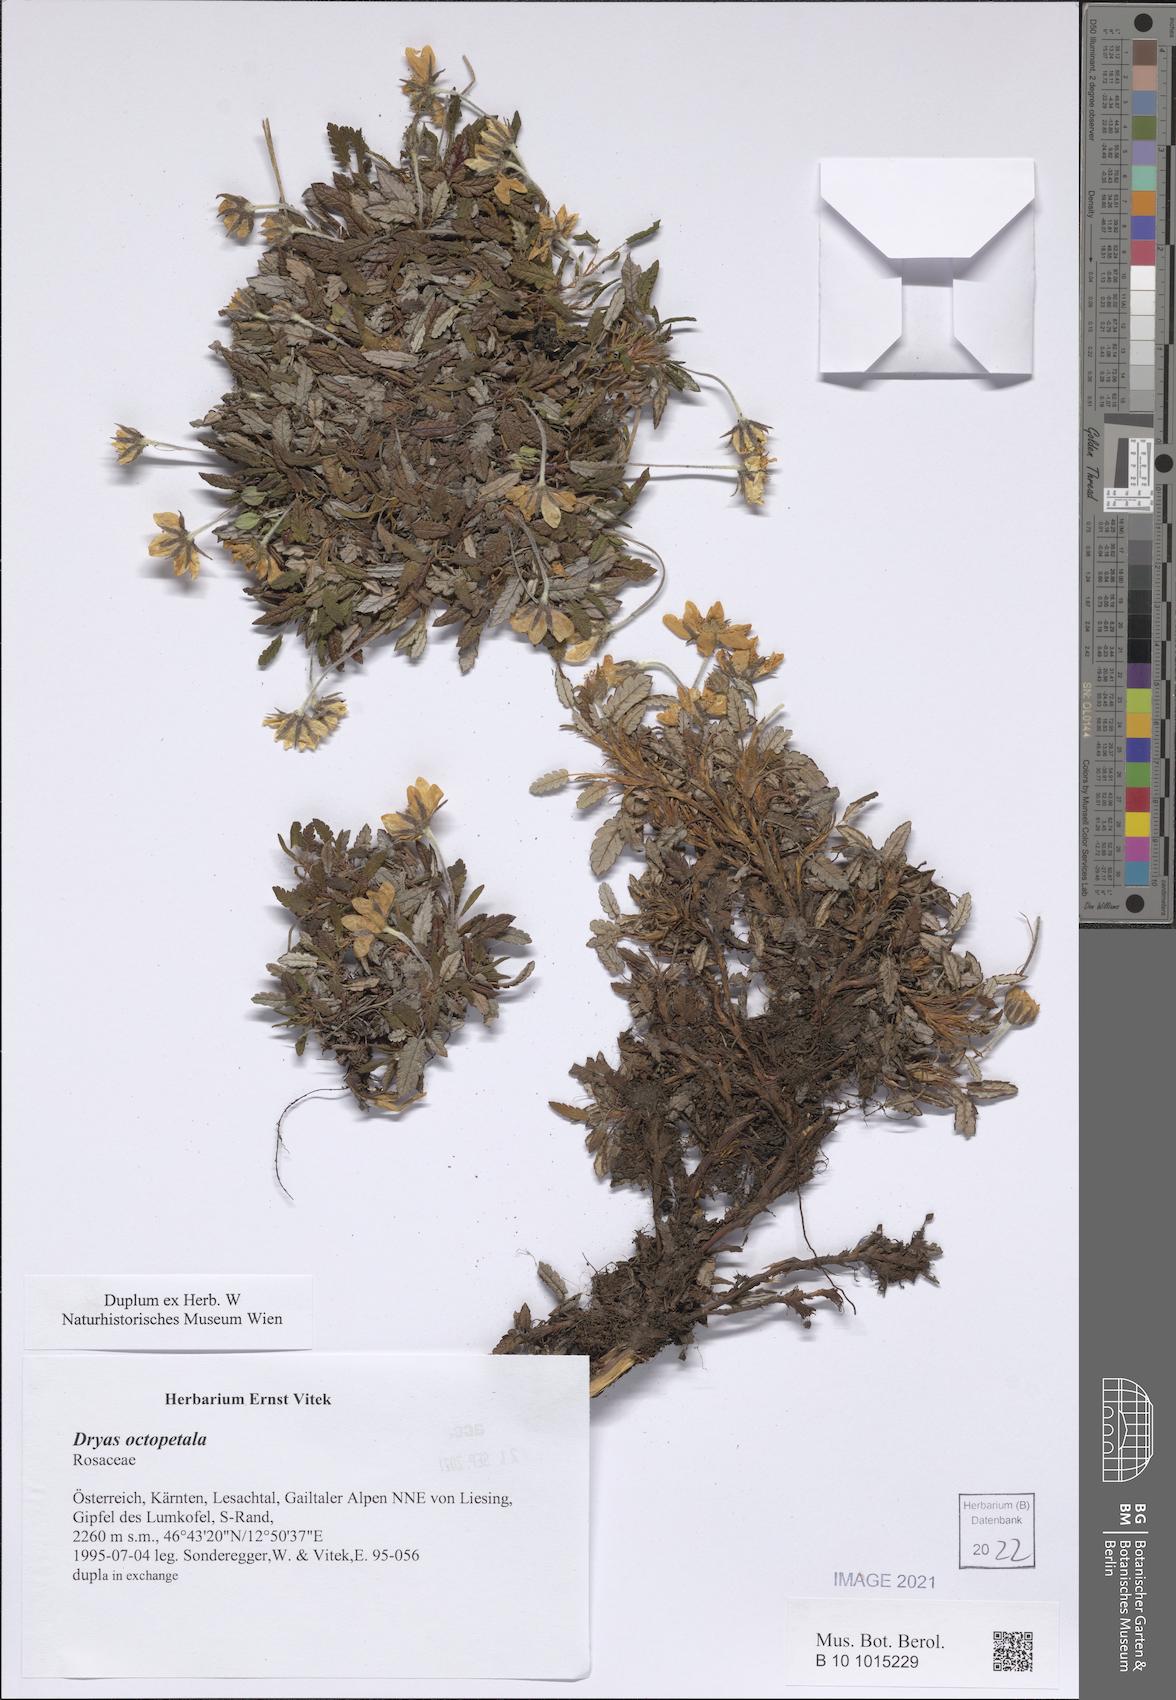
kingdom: Plantae
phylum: Tracheophyta
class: Magnoliopsida
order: Rosales
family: Rosaceae
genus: Dryas
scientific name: Dryas octopetala
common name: Eight-petal mountain-avens
